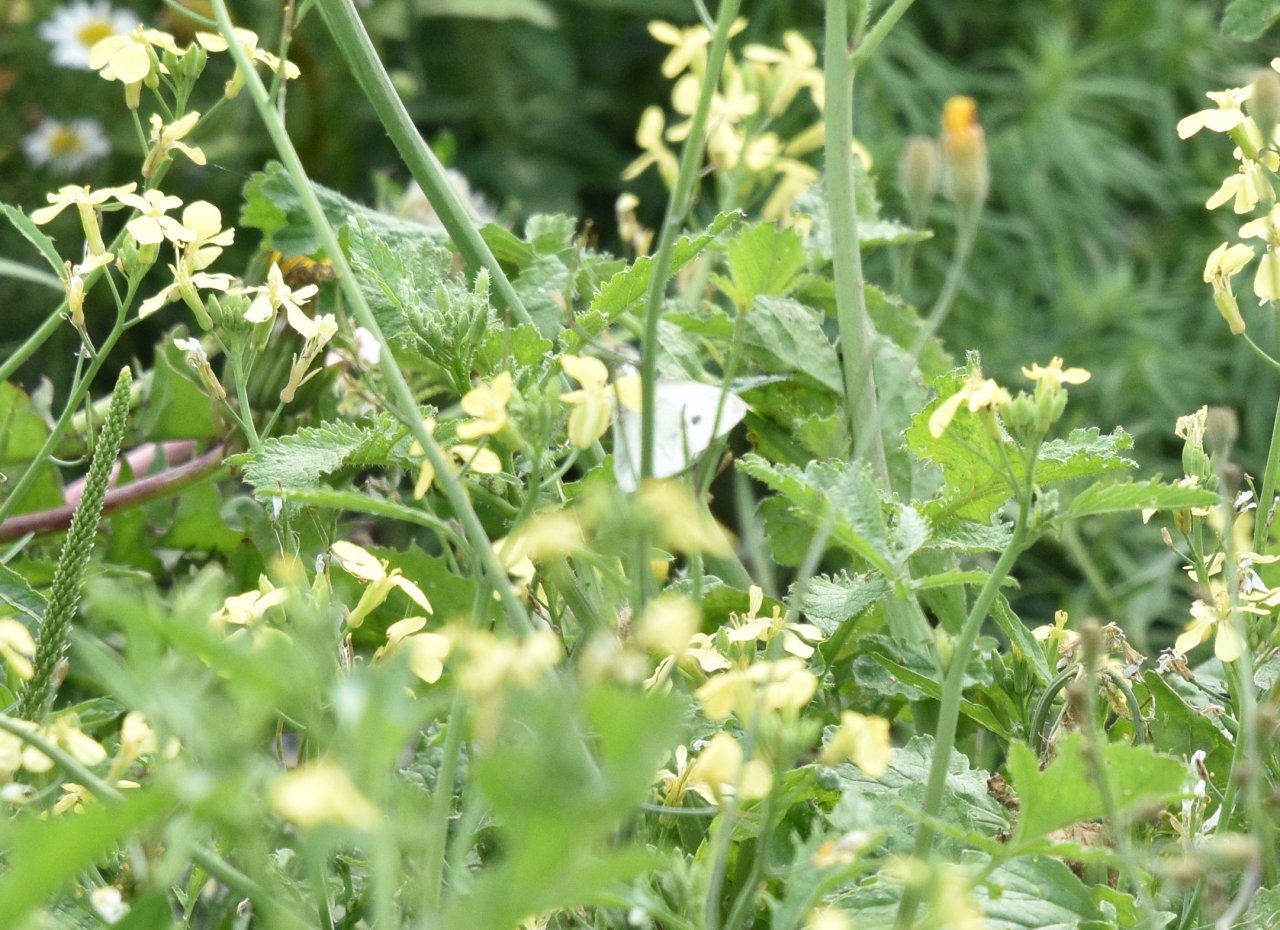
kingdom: Animalia
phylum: Arthropoda
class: Insecta
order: Lepidoptera
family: Pieridae
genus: Pieris
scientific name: Pieris rapae
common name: Cabbage White
